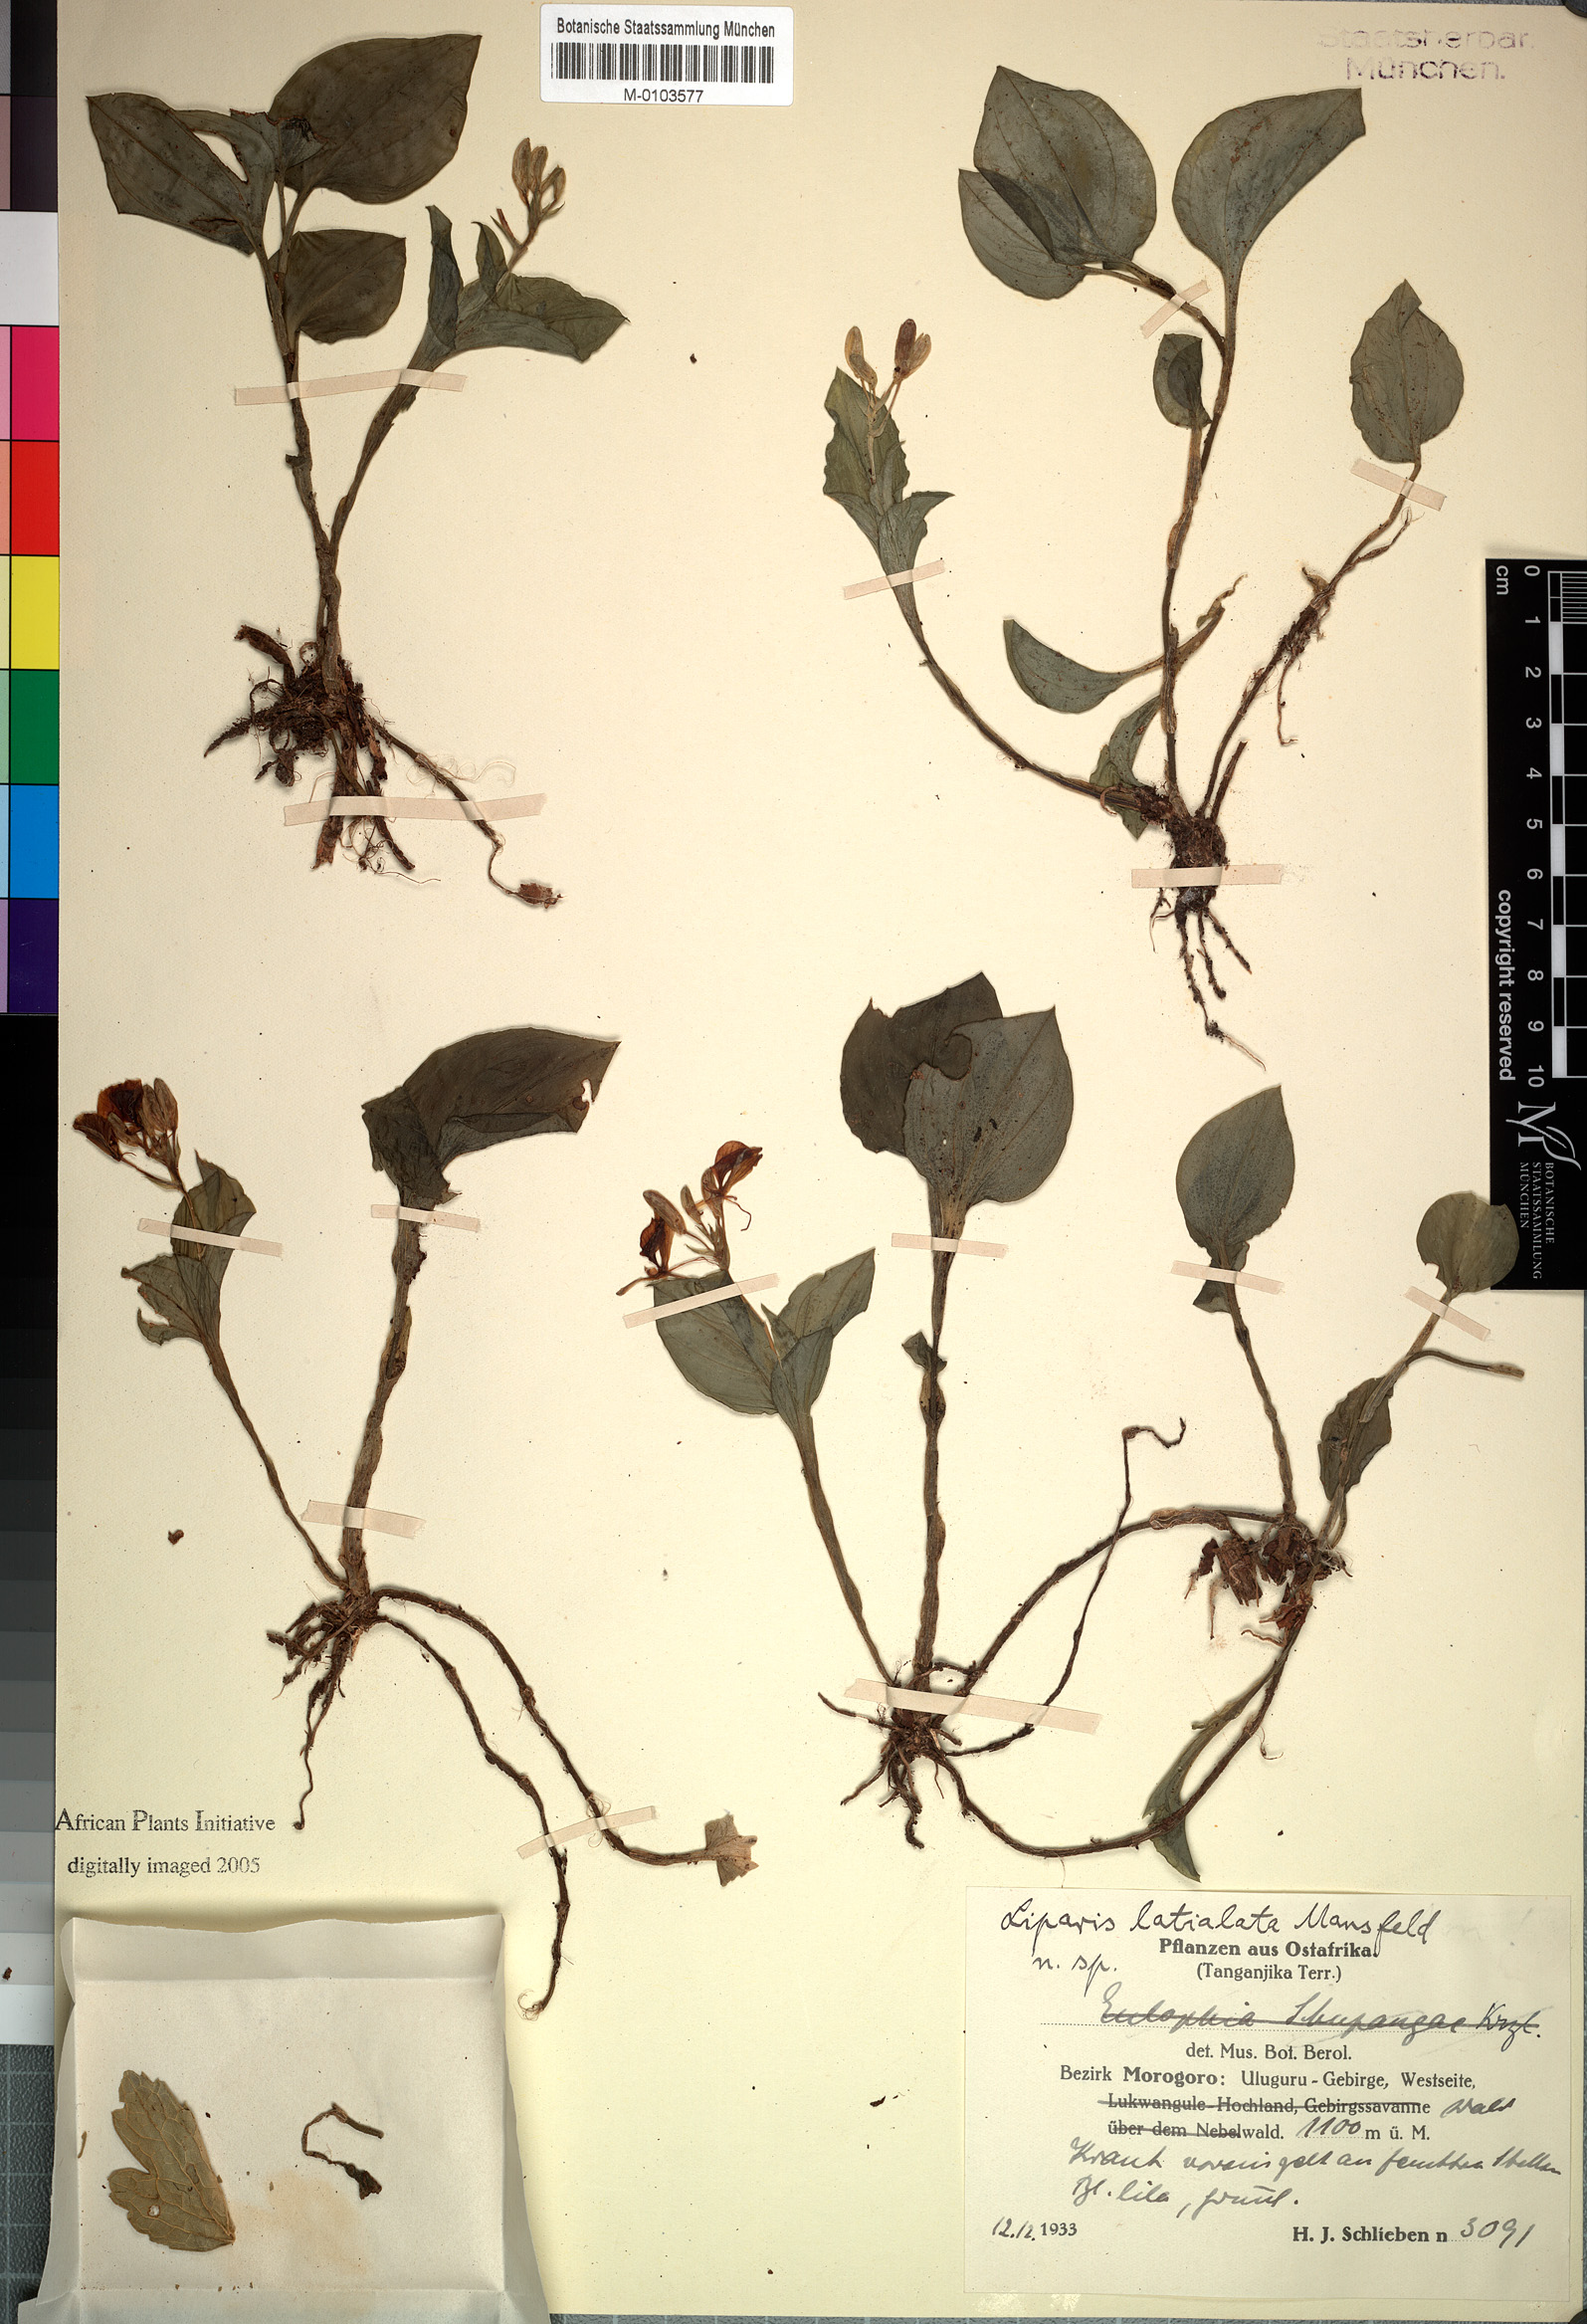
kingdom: Plantae
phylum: Tracheophyta
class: Liliopsida
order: Asparagales
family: Orchidaceae
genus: Liparis
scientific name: Liparis latialata
